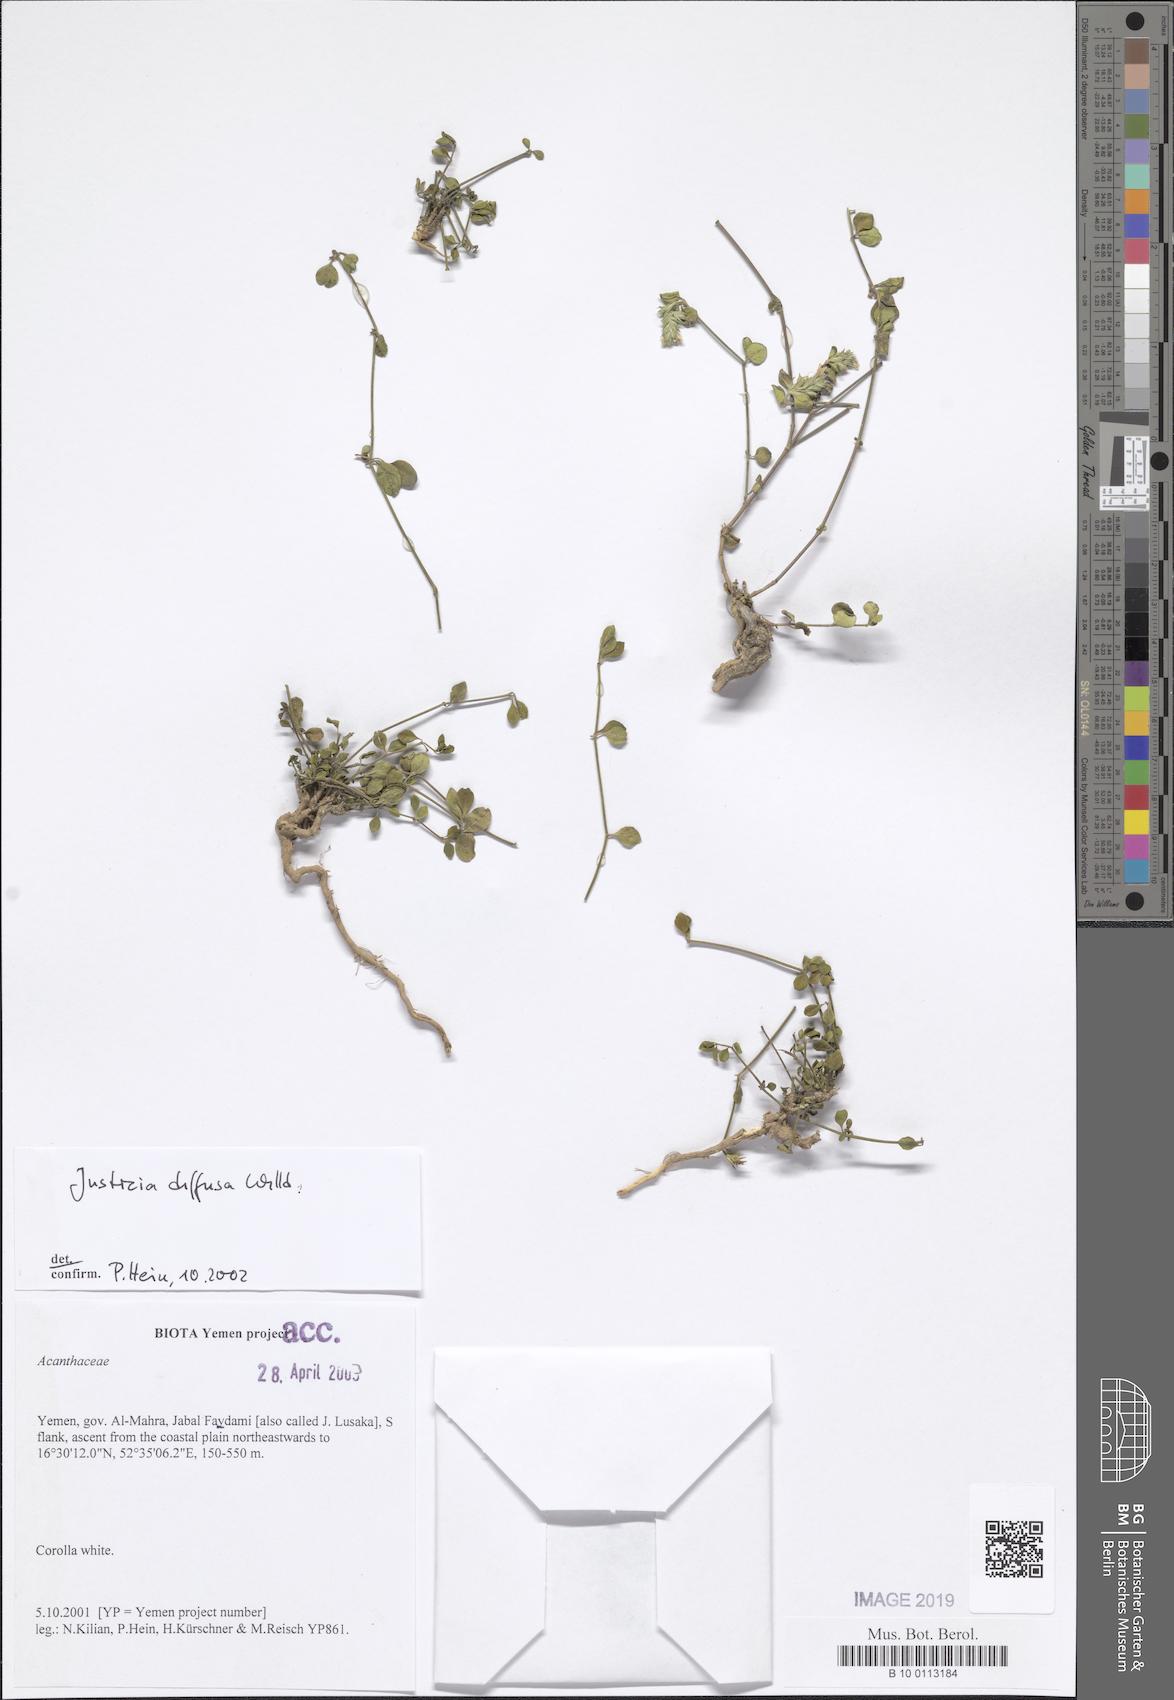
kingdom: Plantae
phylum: Tracheophyta
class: Magnoliopsida
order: Lamiales
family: Acanthaceae
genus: Rostellularia
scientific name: Rostellularia diffusa
